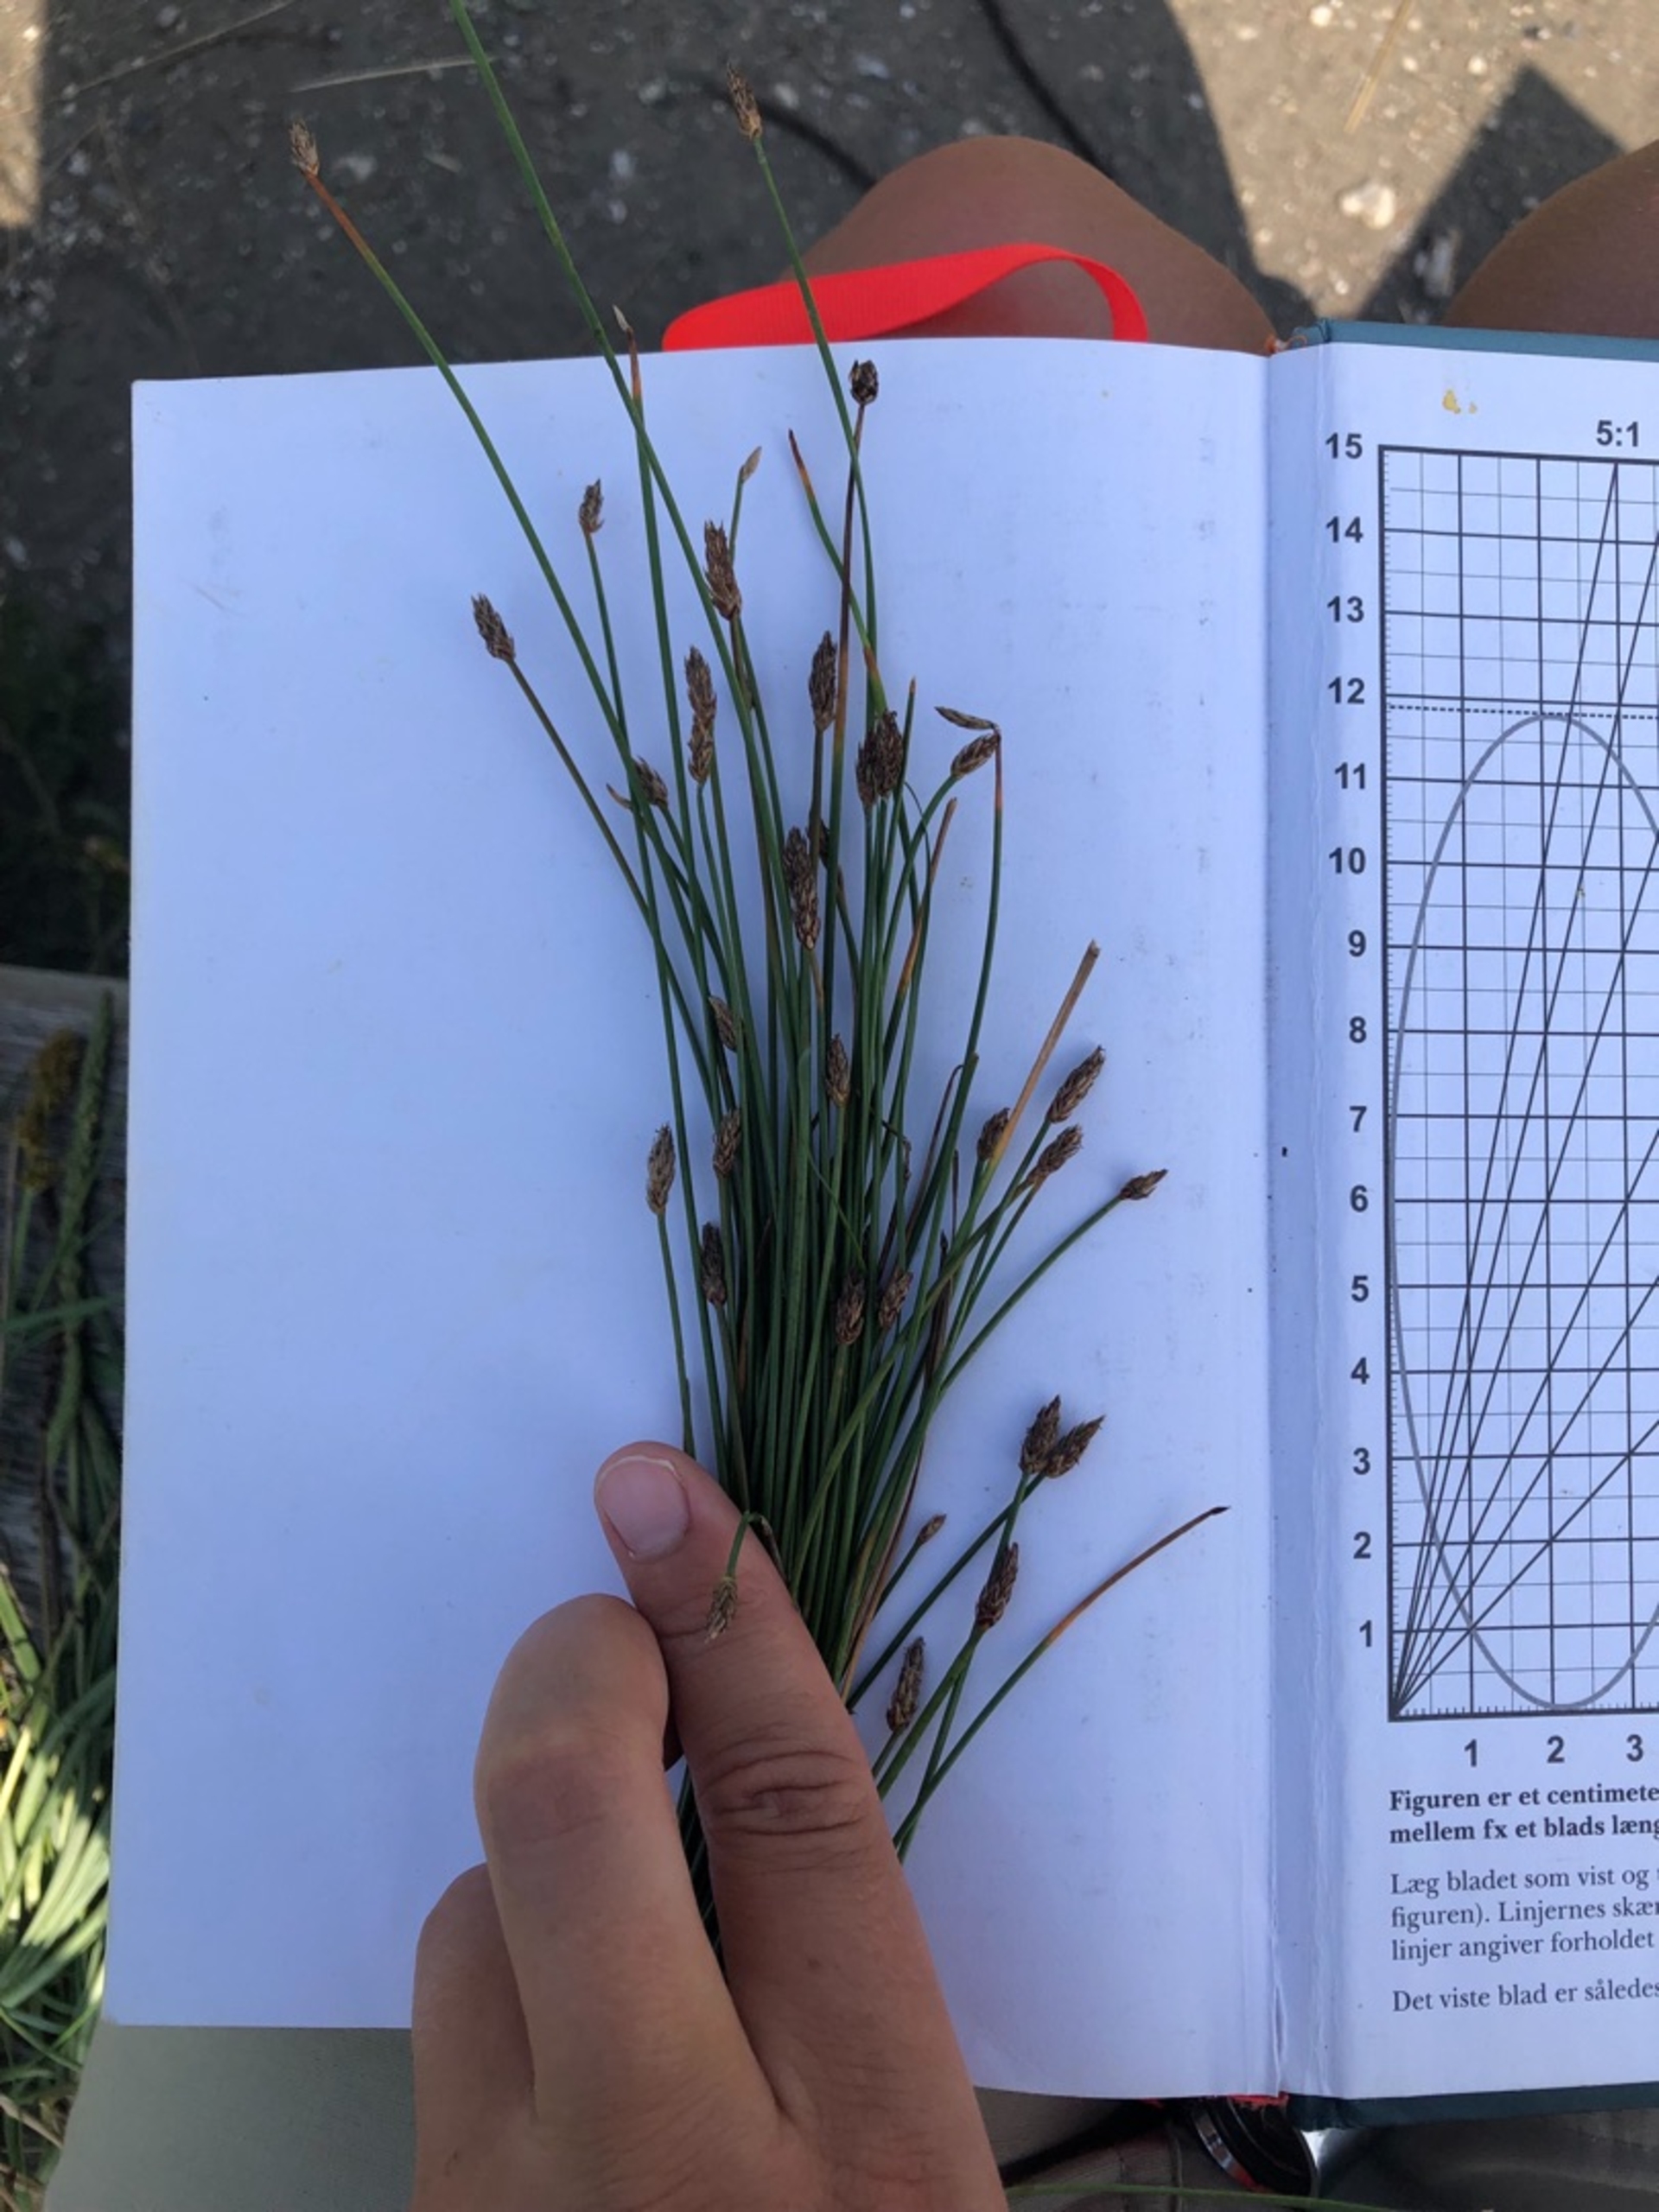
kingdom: Plantae
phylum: Tracheophyta
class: Liliopsida
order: Poales
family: Cyperaceae
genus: Eleocharis
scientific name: Eleocharis uniglumis
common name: Enskællet sumpstrå
